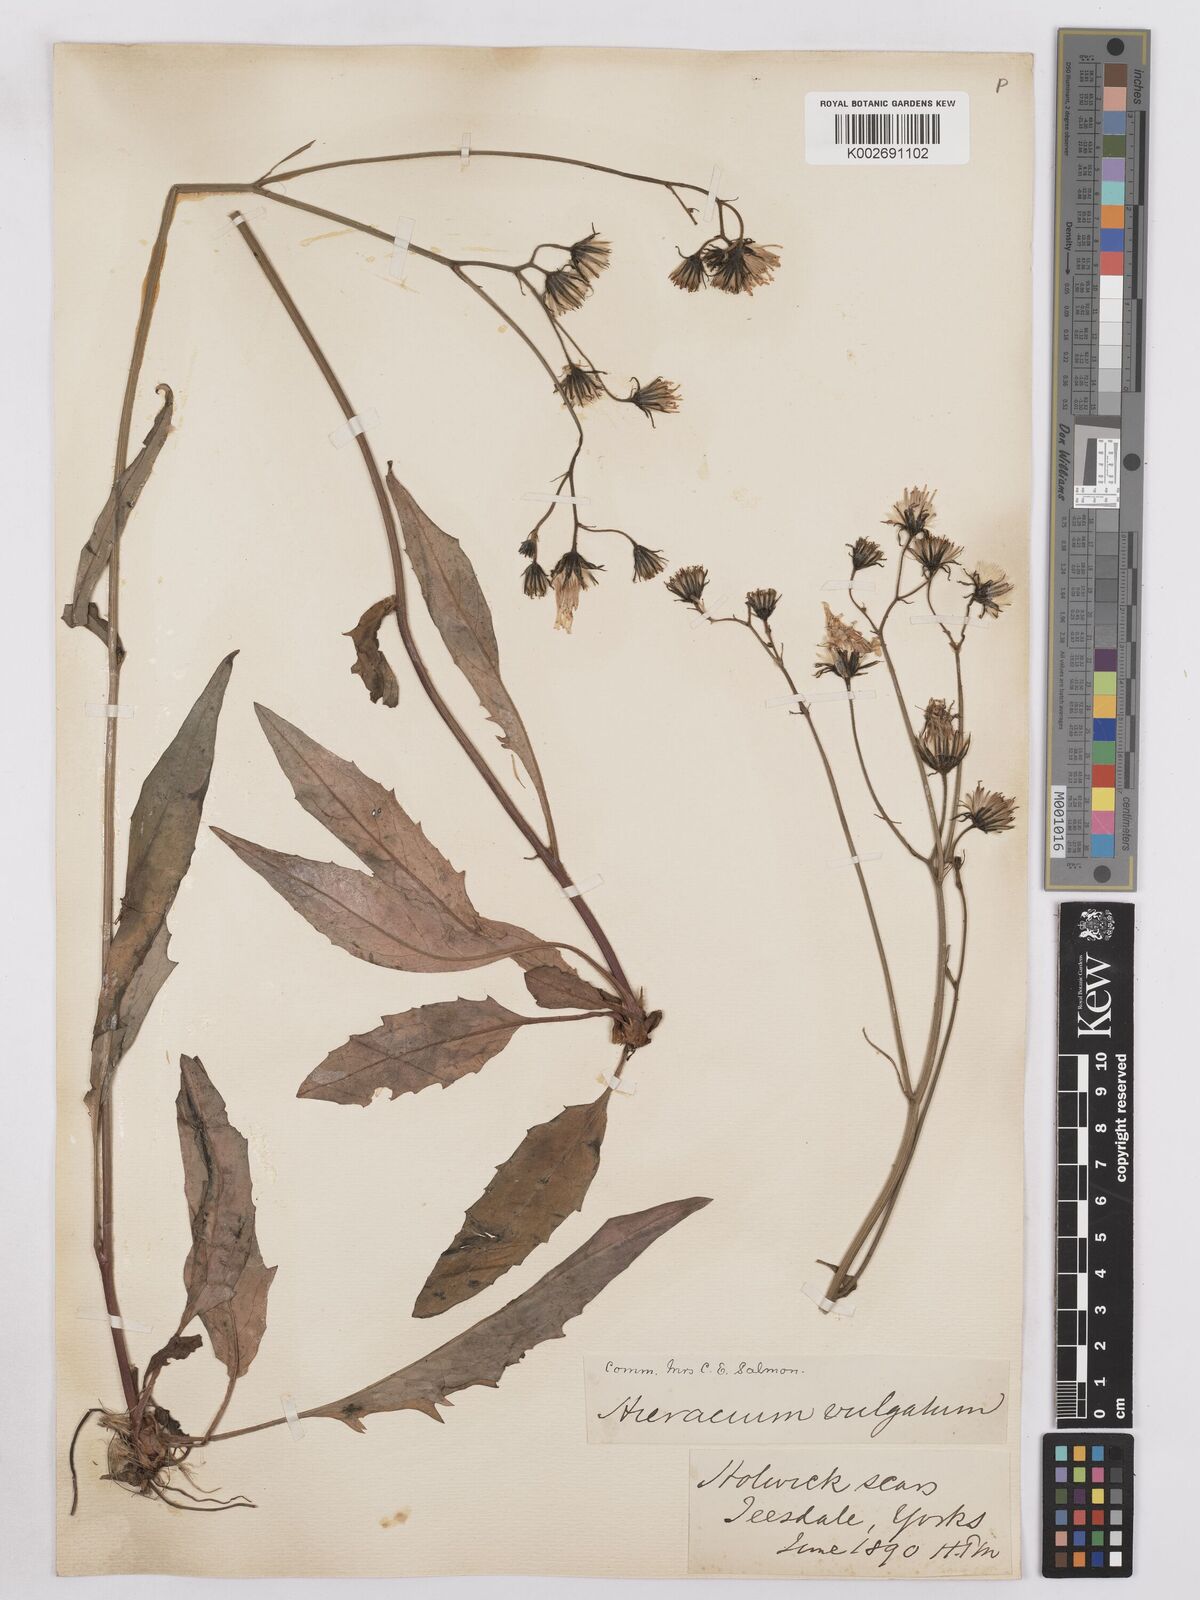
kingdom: Plantae
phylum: Tracheophyta
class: Magnoliopsida
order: Asterales
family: Asteraceae
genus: Hieracium
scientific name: Hieracium lachenalii
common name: Common hawkweed
